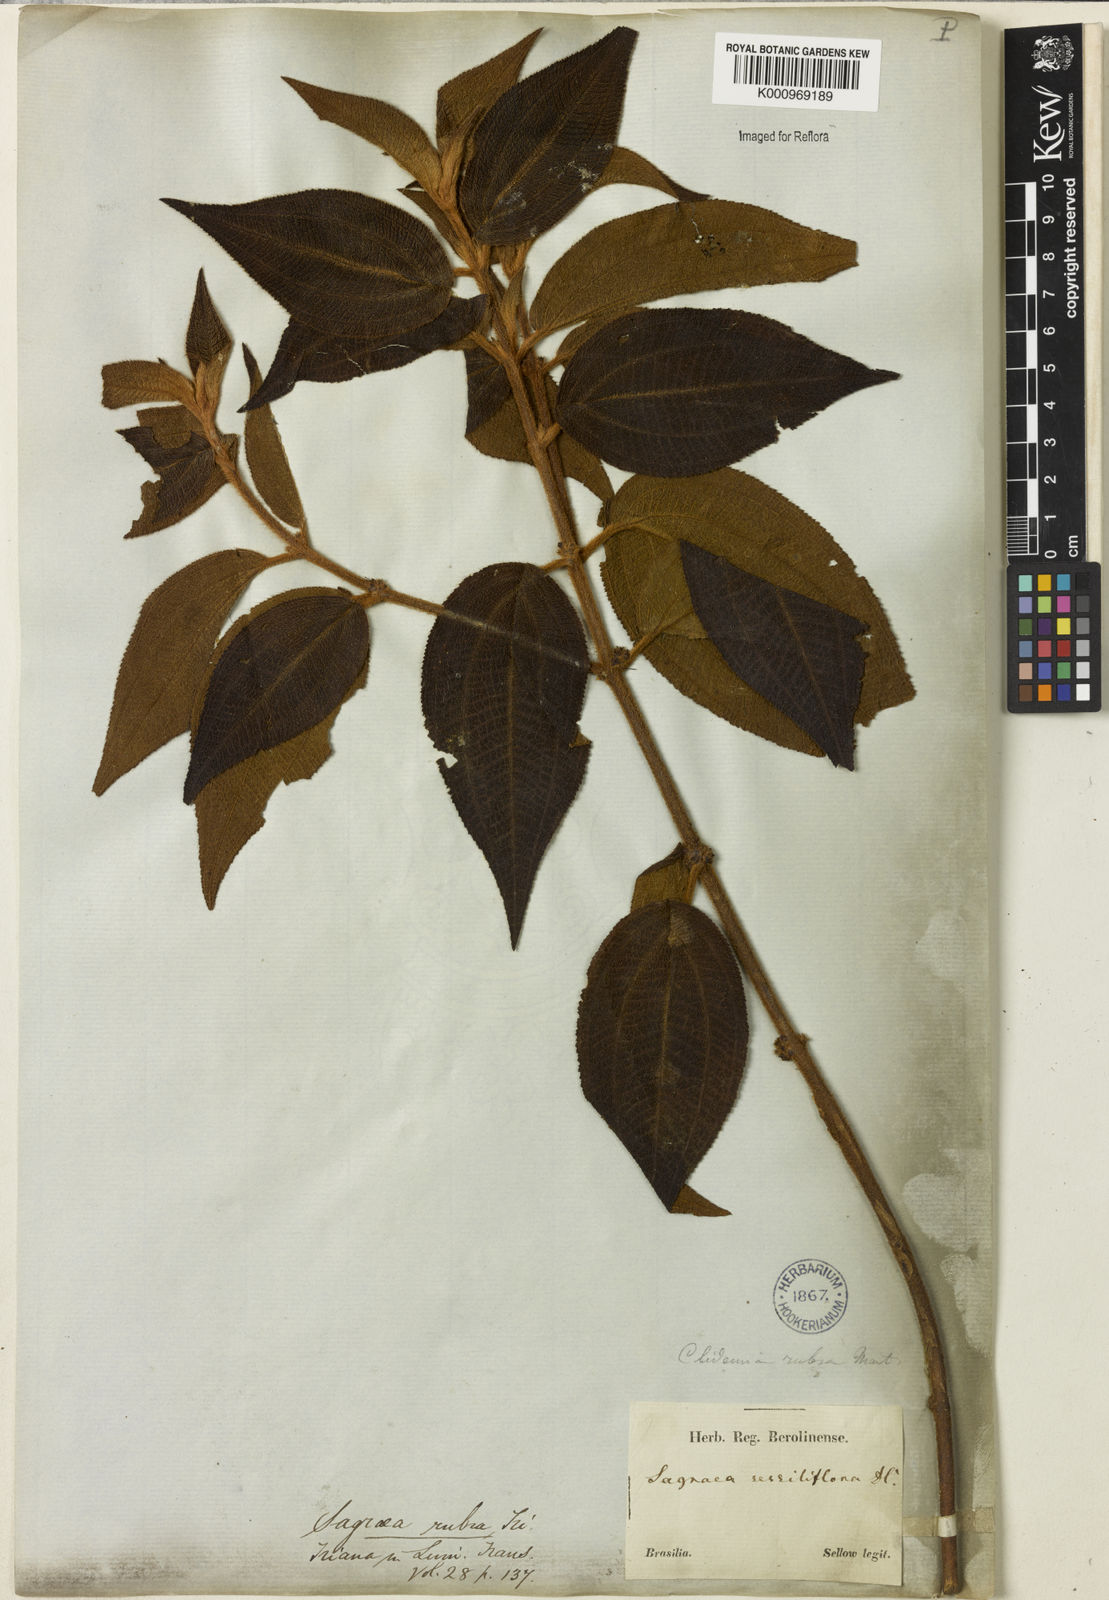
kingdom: Plantae
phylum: Tracheophyta
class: Magnoliopsida
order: Myrtales
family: Melastomataceae
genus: Miconia
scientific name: Miconia rubra
